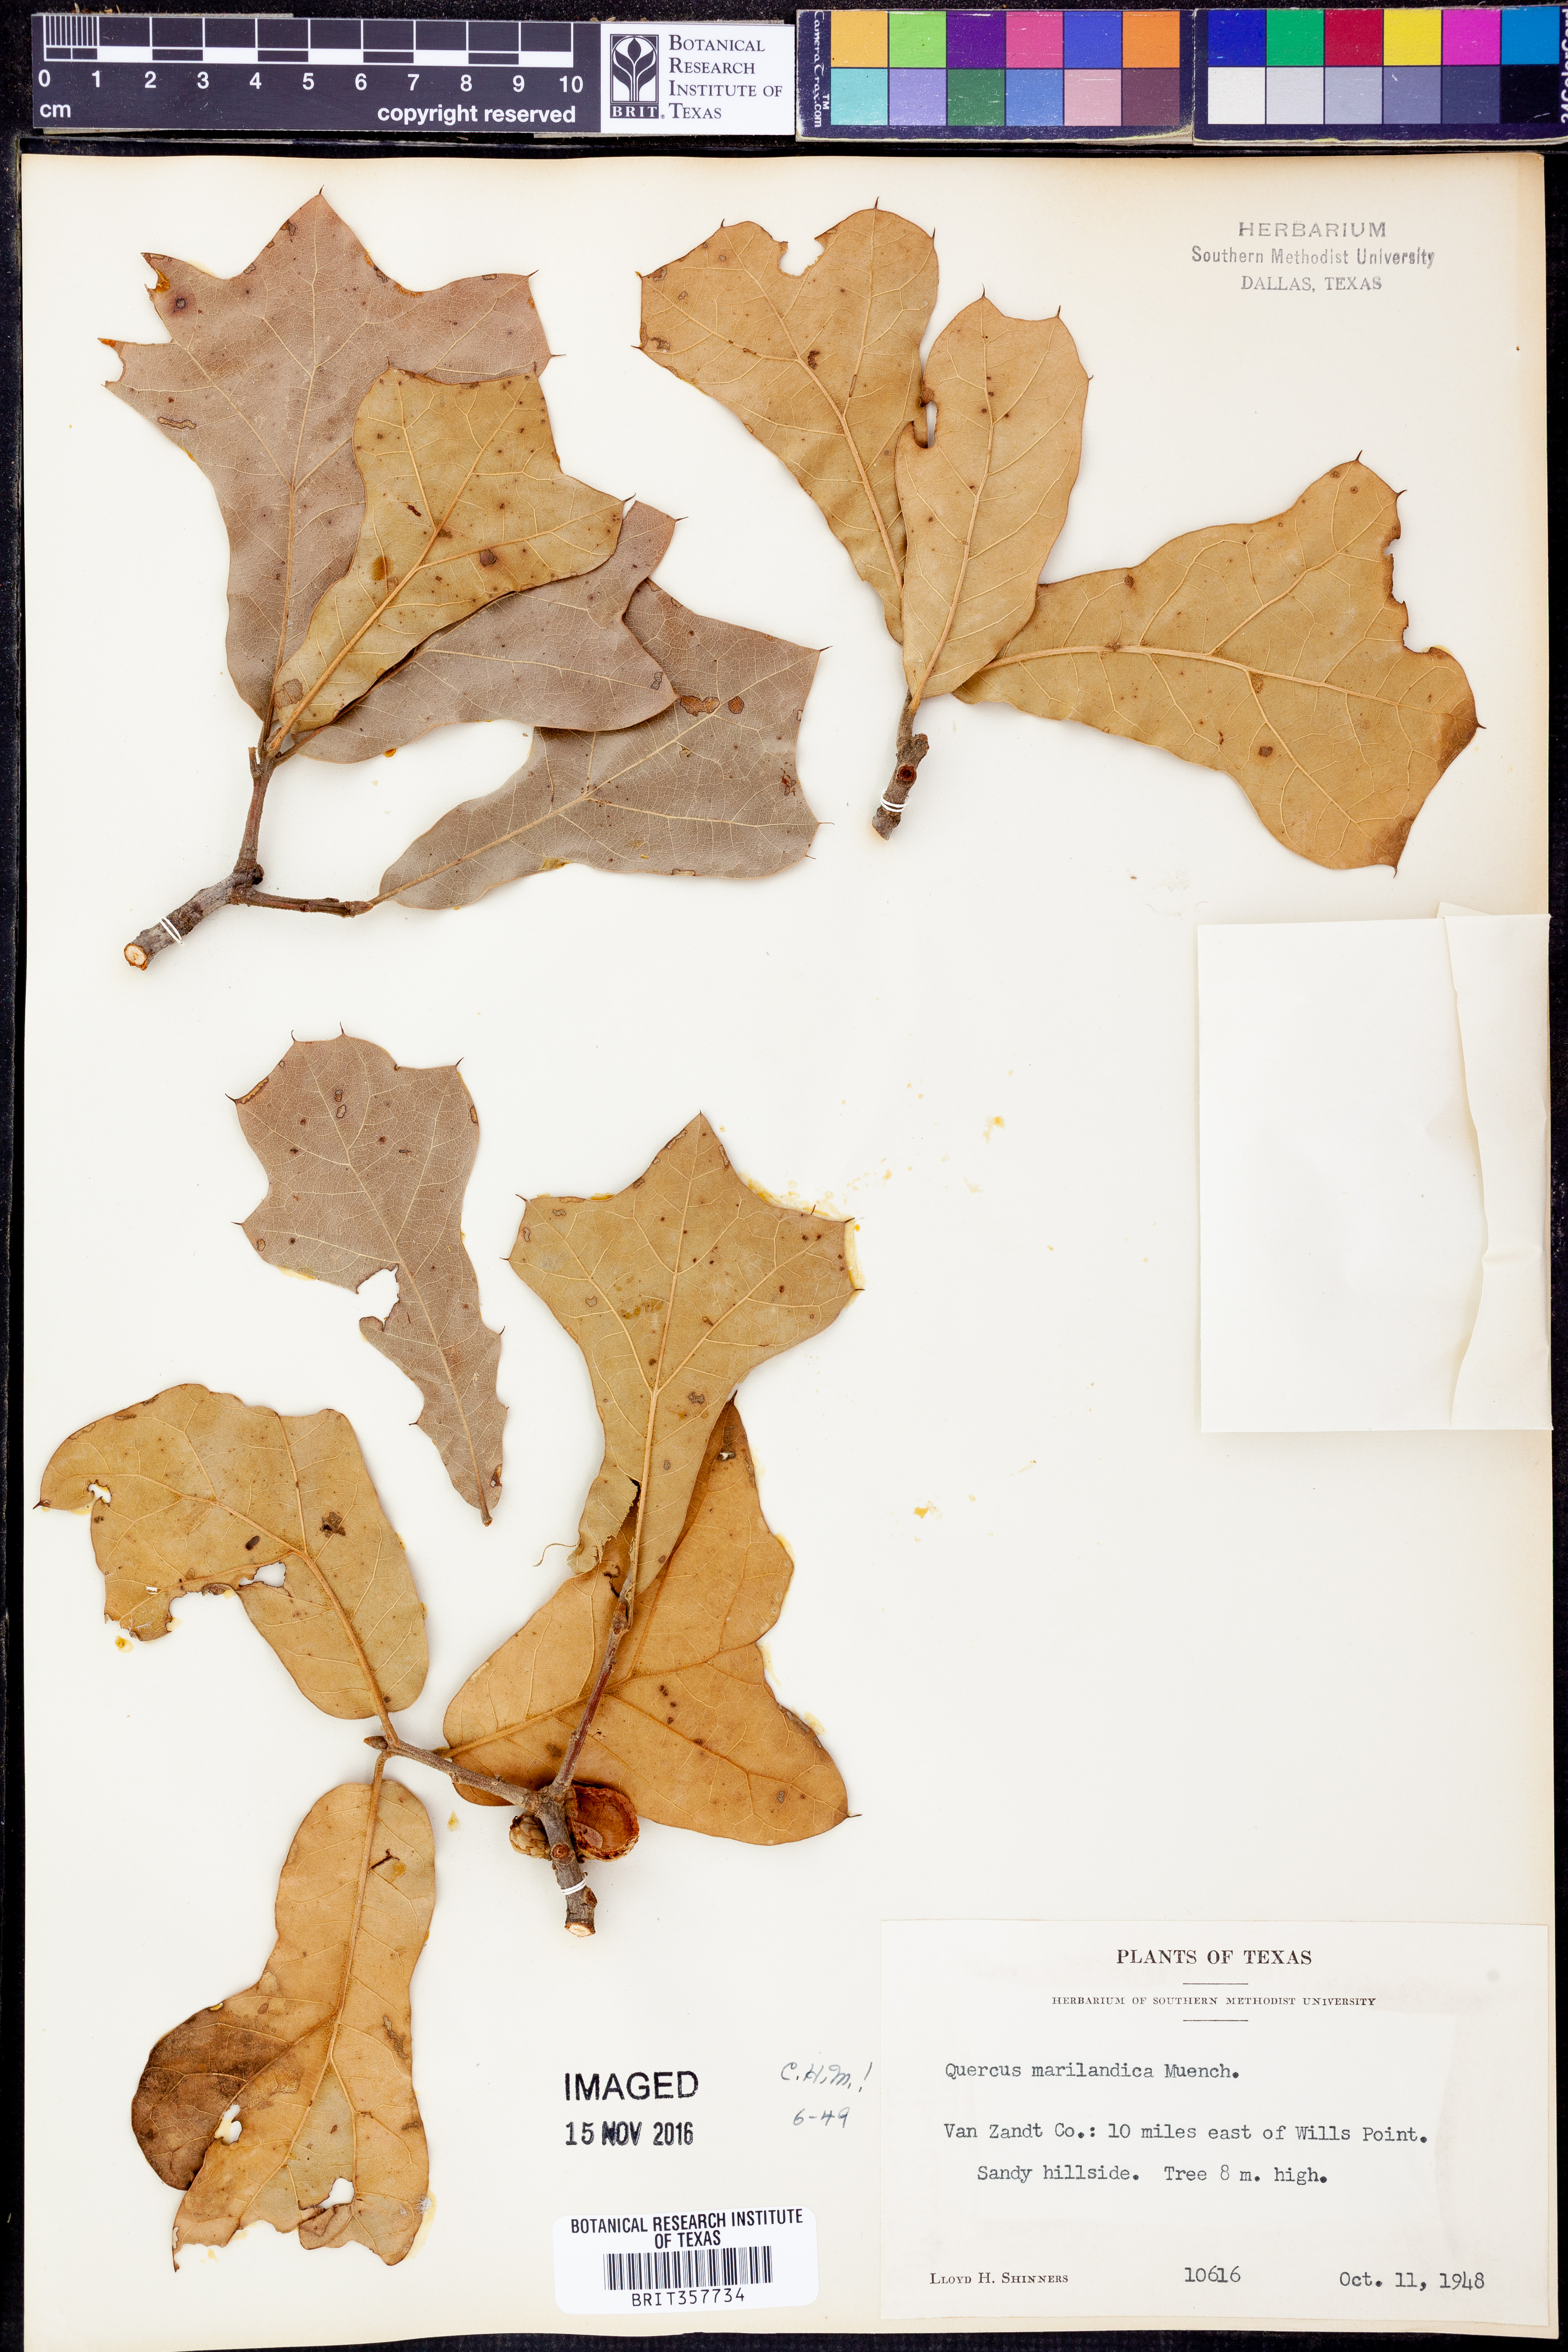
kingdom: Plantae
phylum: Tracheophyta
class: Magnoliopsida
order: Fagales
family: Fagaceae
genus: Quercus
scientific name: Quercus marilandica
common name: Blackjack oak
